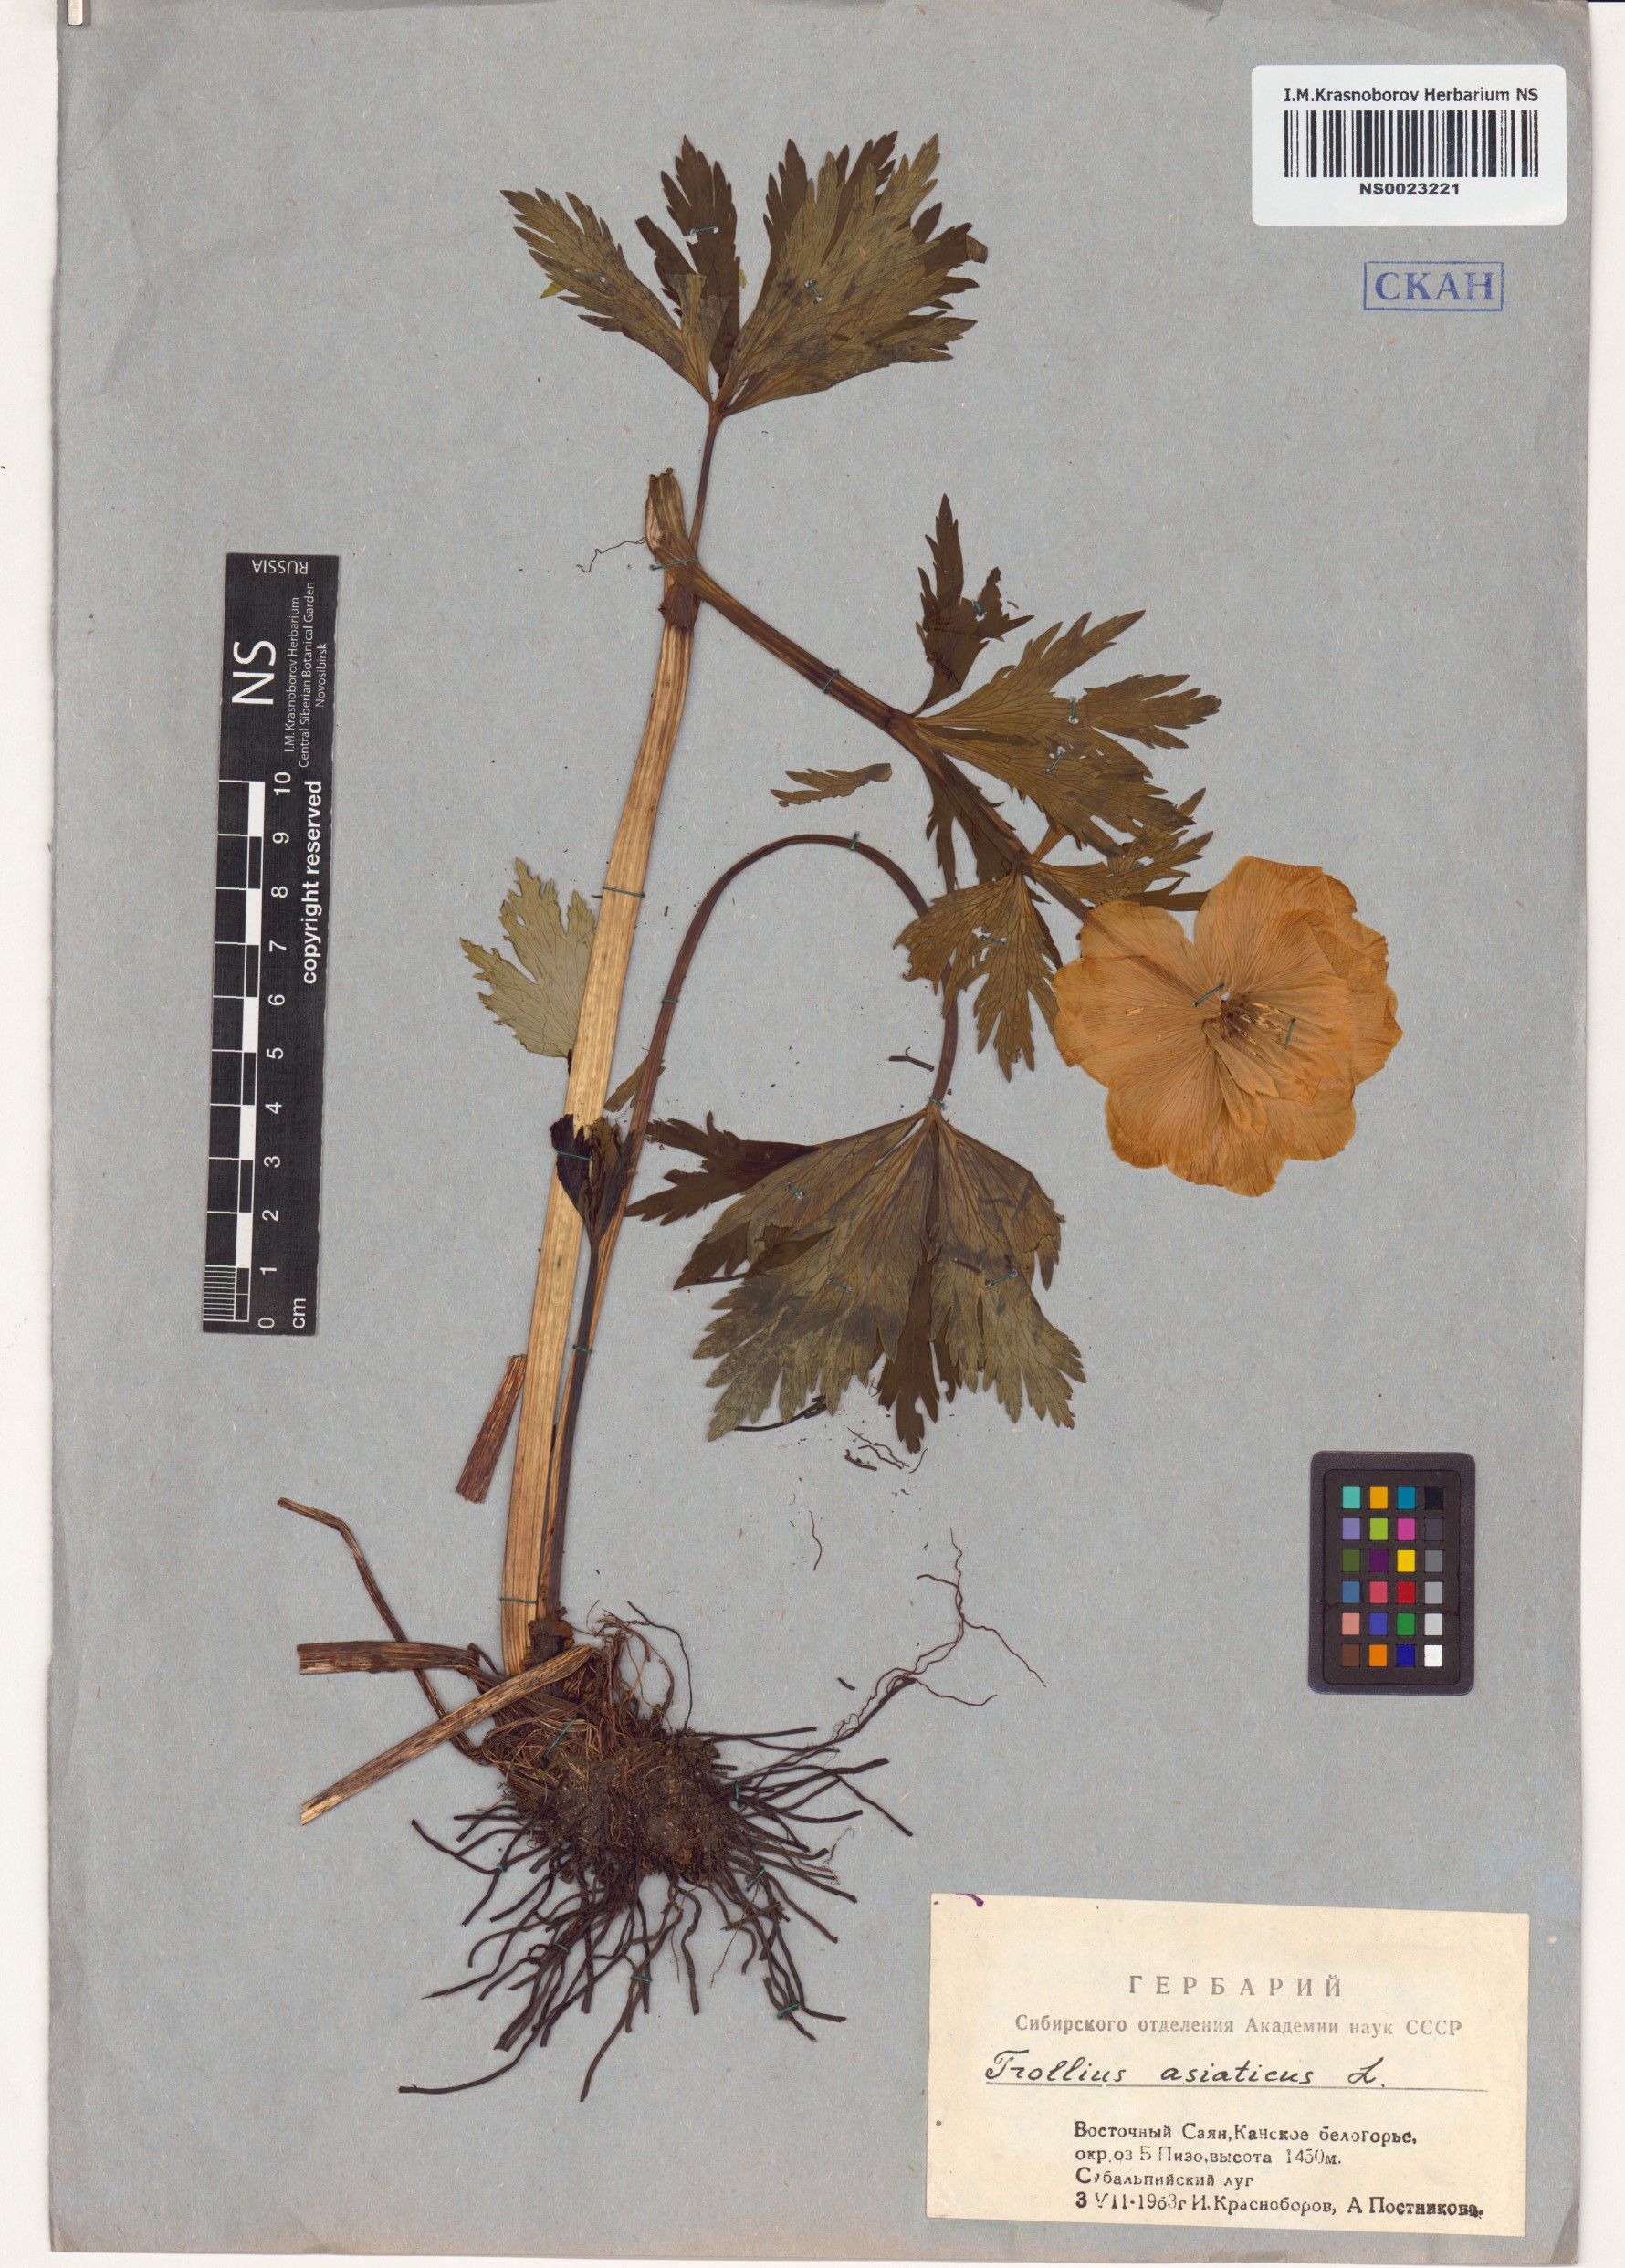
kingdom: Plantae
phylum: Tracheophyta
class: Magnoliopsida
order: Ranunculales
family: Ranunculaceae
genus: Trollius
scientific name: Trollius asiaticus
